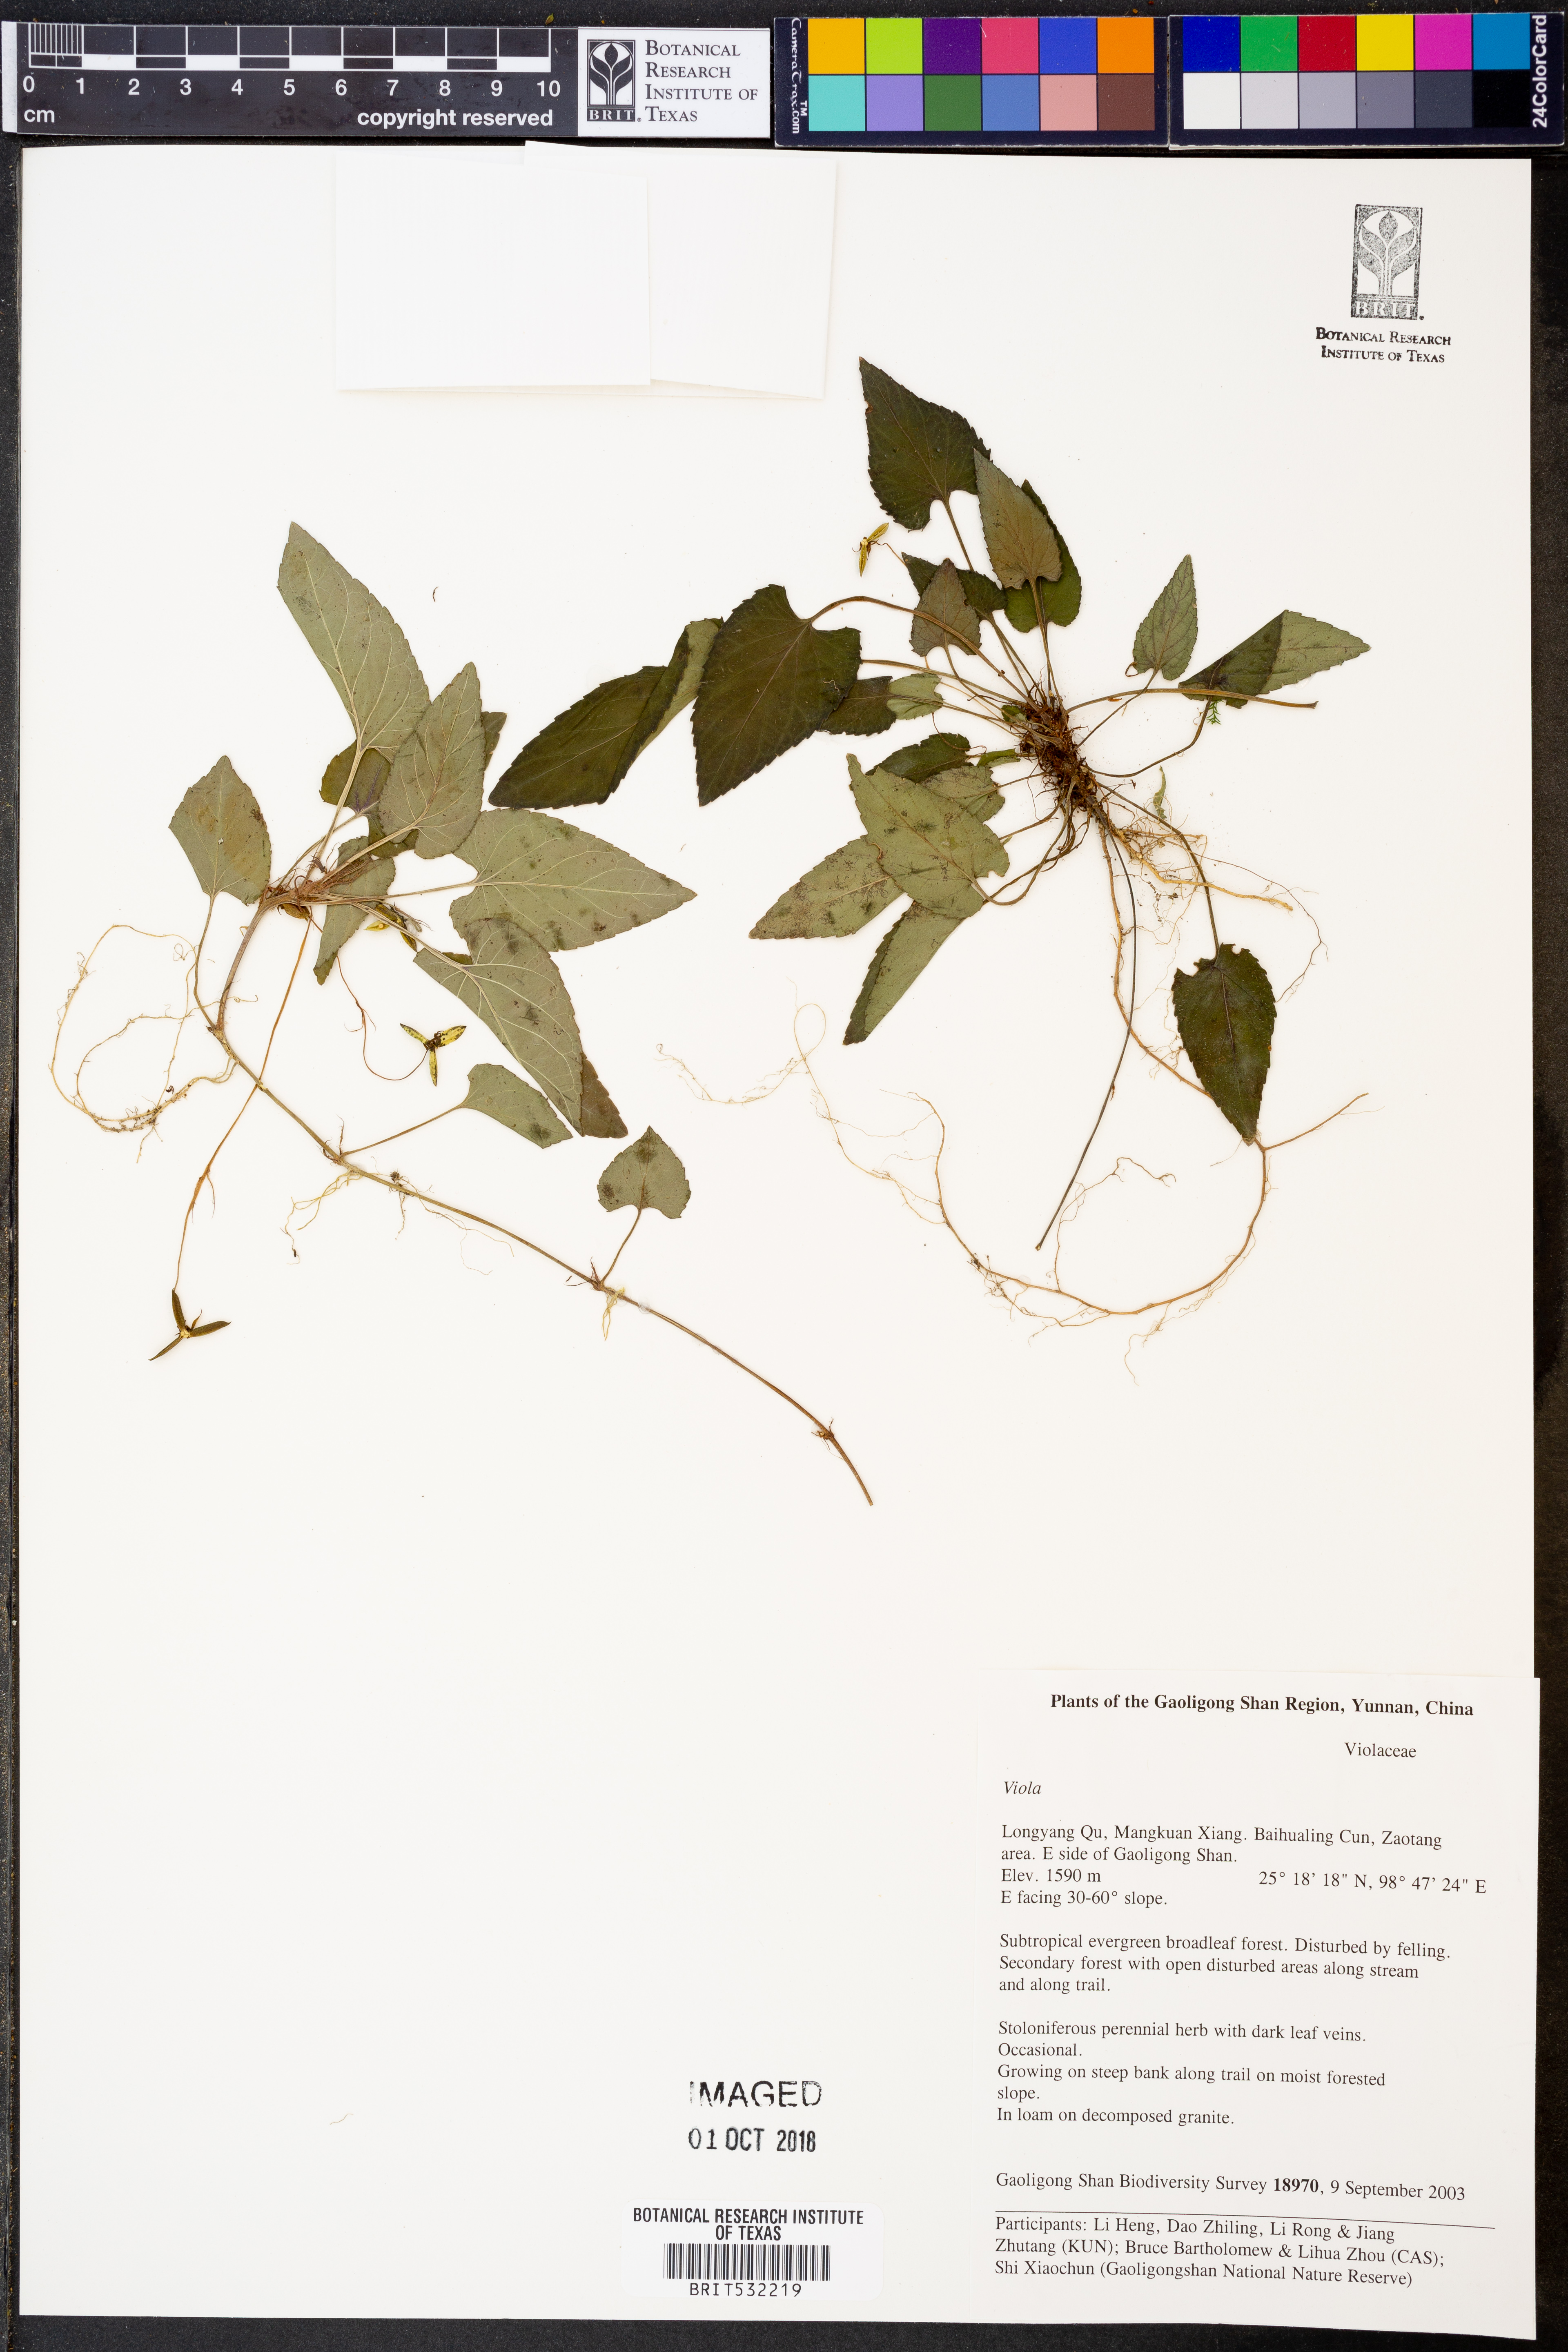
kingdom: Plantae
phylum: Tracheophyta
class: Magnoliopsida
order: Malpighiales
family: Violaceae
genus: Viola
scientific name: Viola
